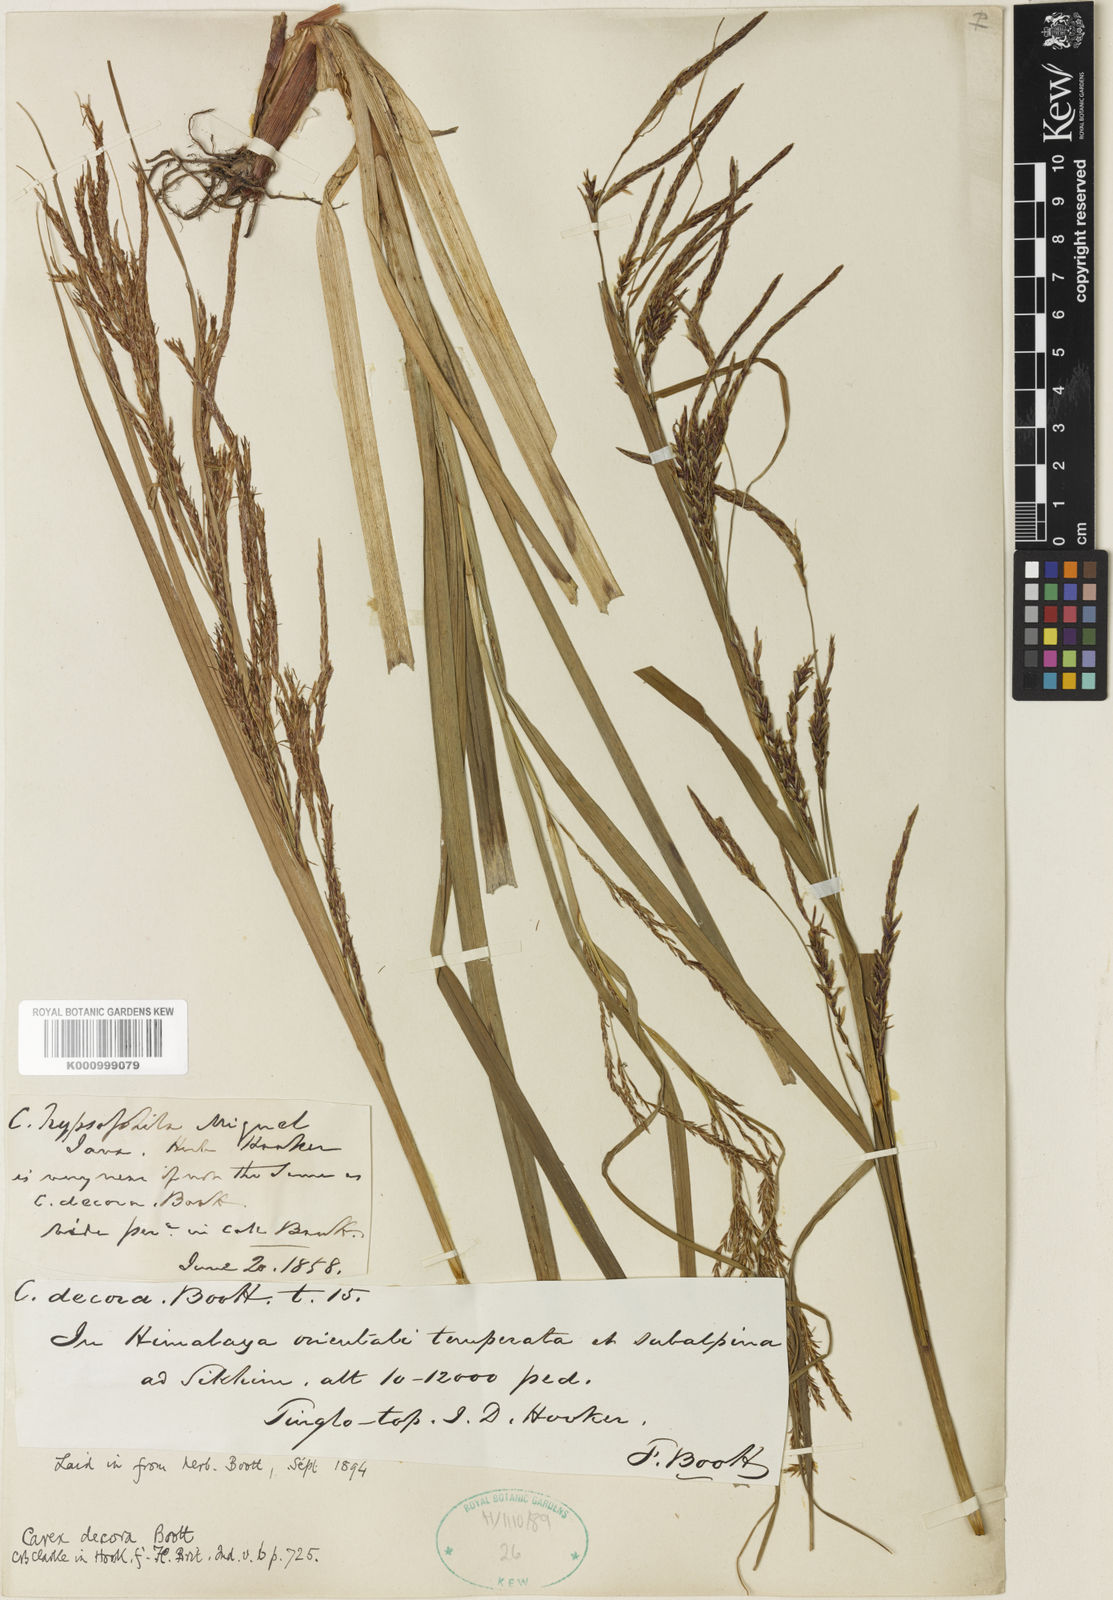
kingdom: Plantae
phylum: Tracheophyta
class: Liliopsida
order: Poales
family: Cyperaceae
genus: Carex
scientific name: Carex decora
